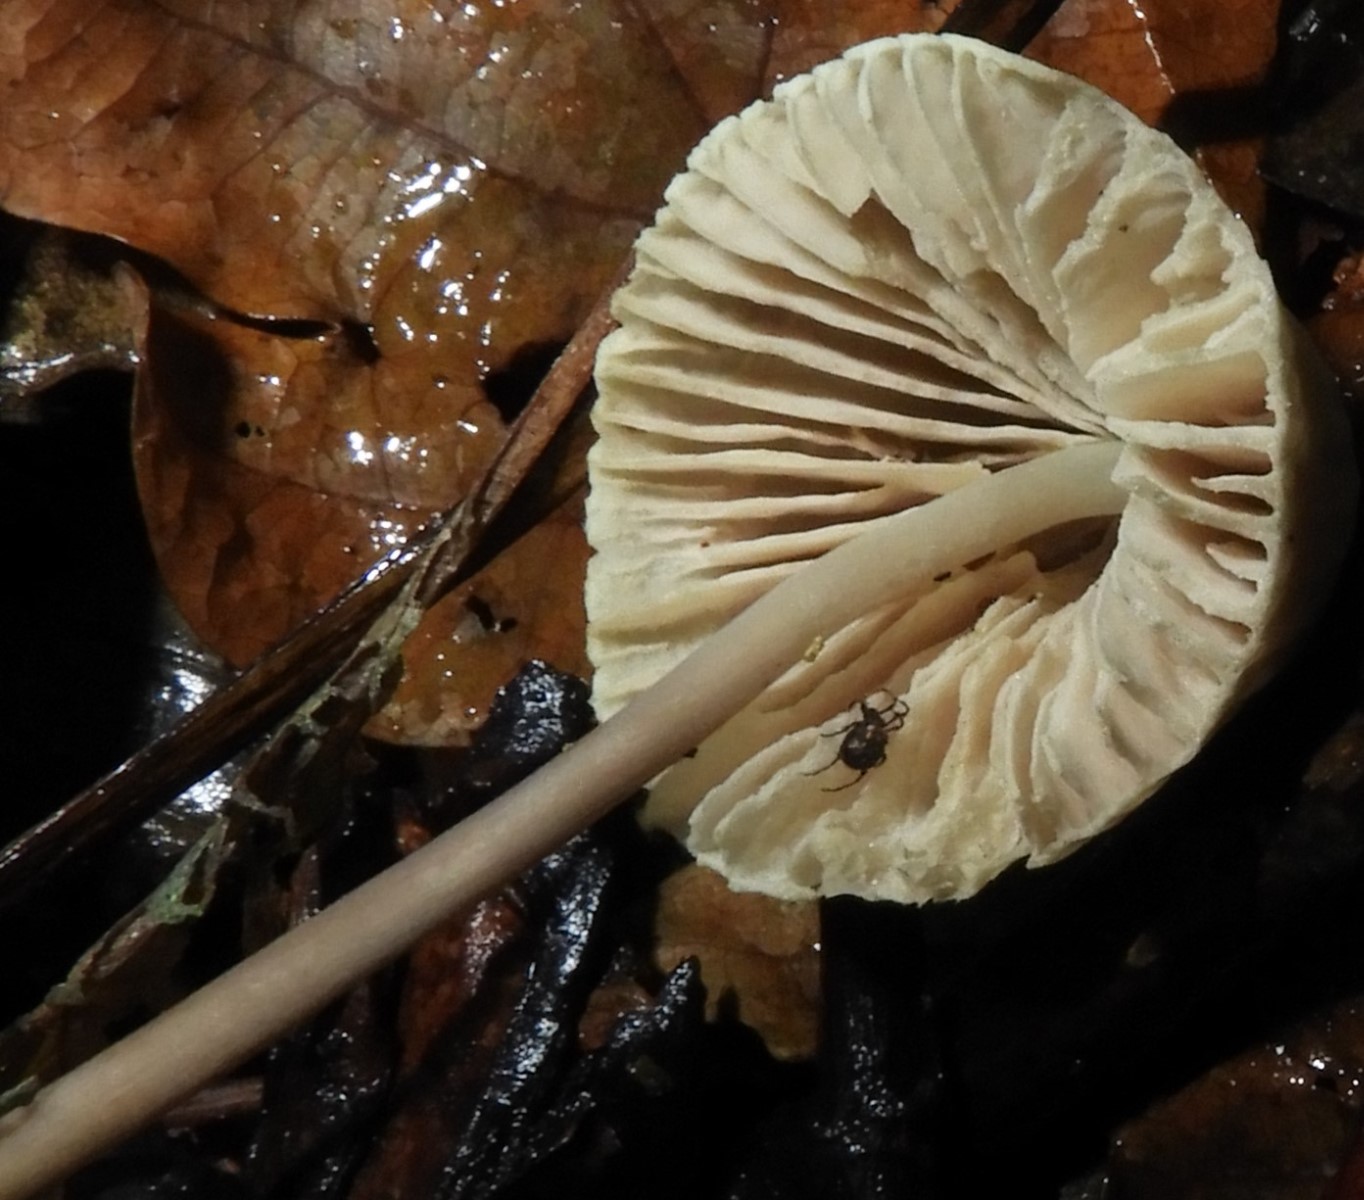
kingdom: Fungi
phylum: Basidiomycota
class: Agaricomycetes
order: Agaricales
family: Mycenaceae
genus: Mycena
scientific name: Mycena
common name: huesvamp
